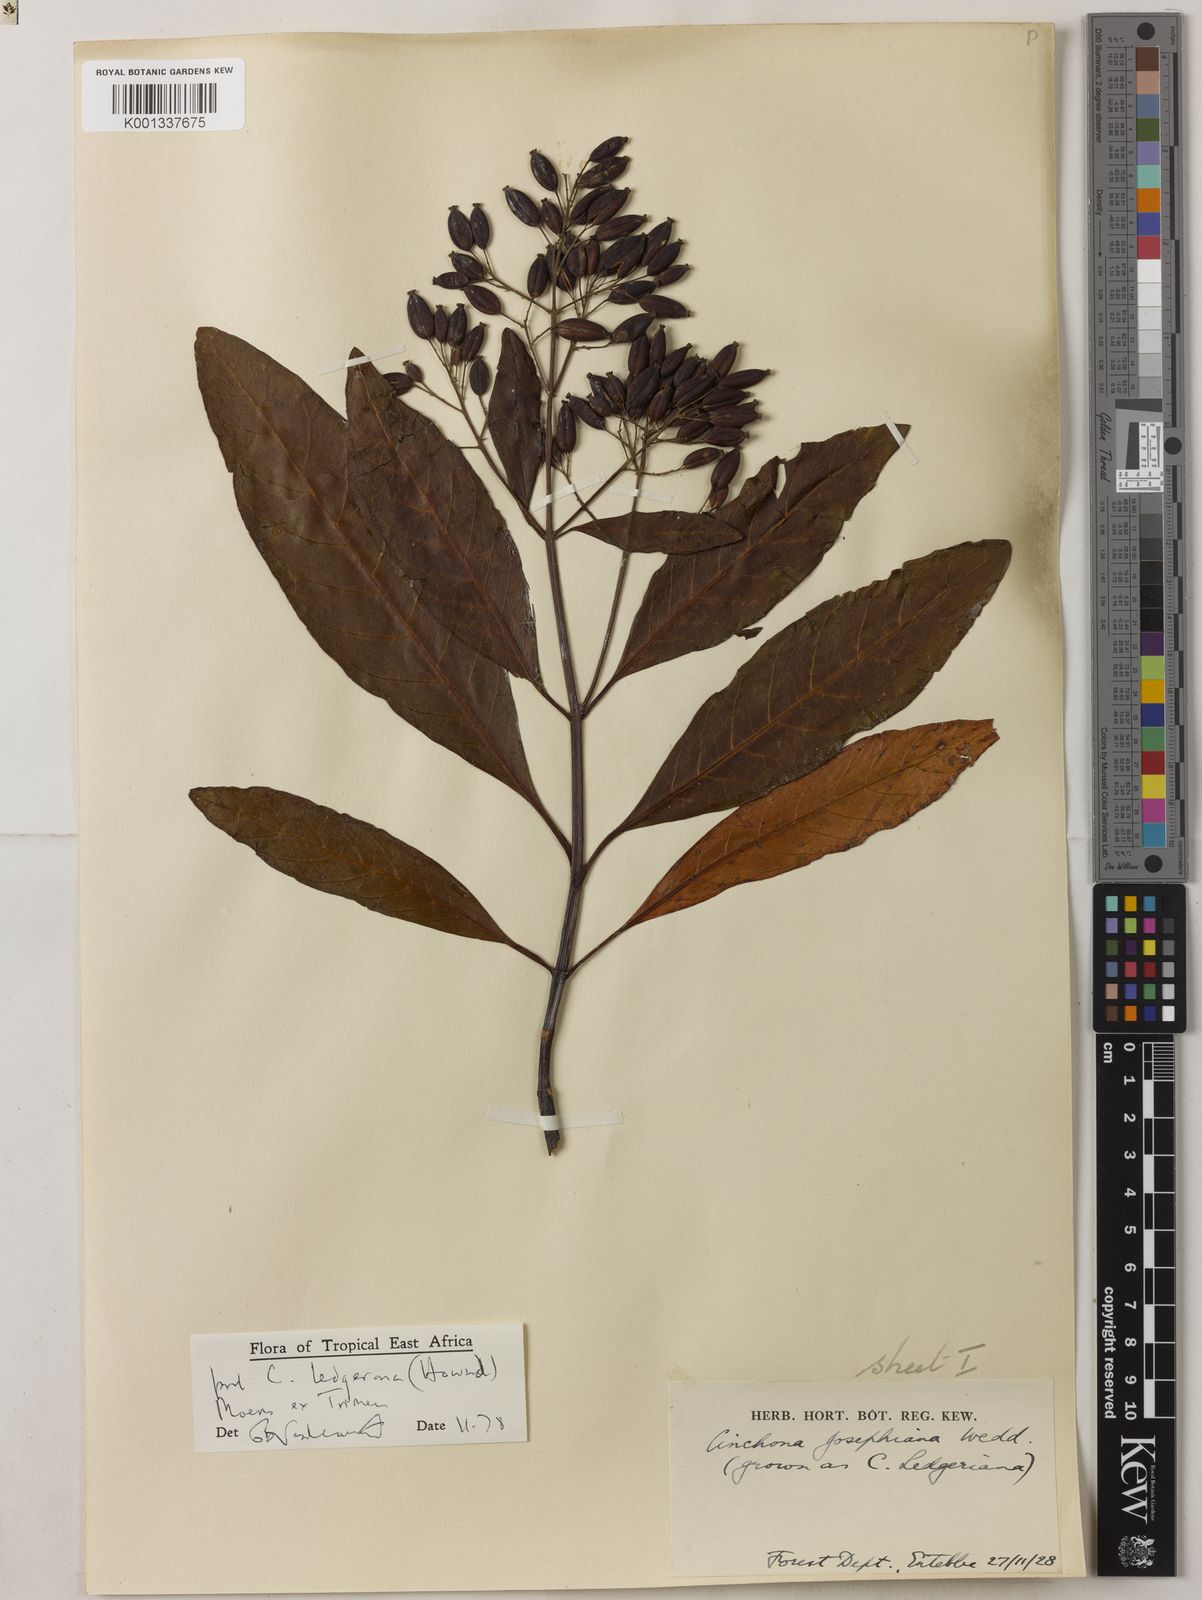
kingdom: Plantae
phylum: Tracheophyta
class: Magnoliopsida
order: Gentianales
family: Rubiaceae
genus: Cinchona
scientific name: Cinchona officinalis
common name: Lojabark
